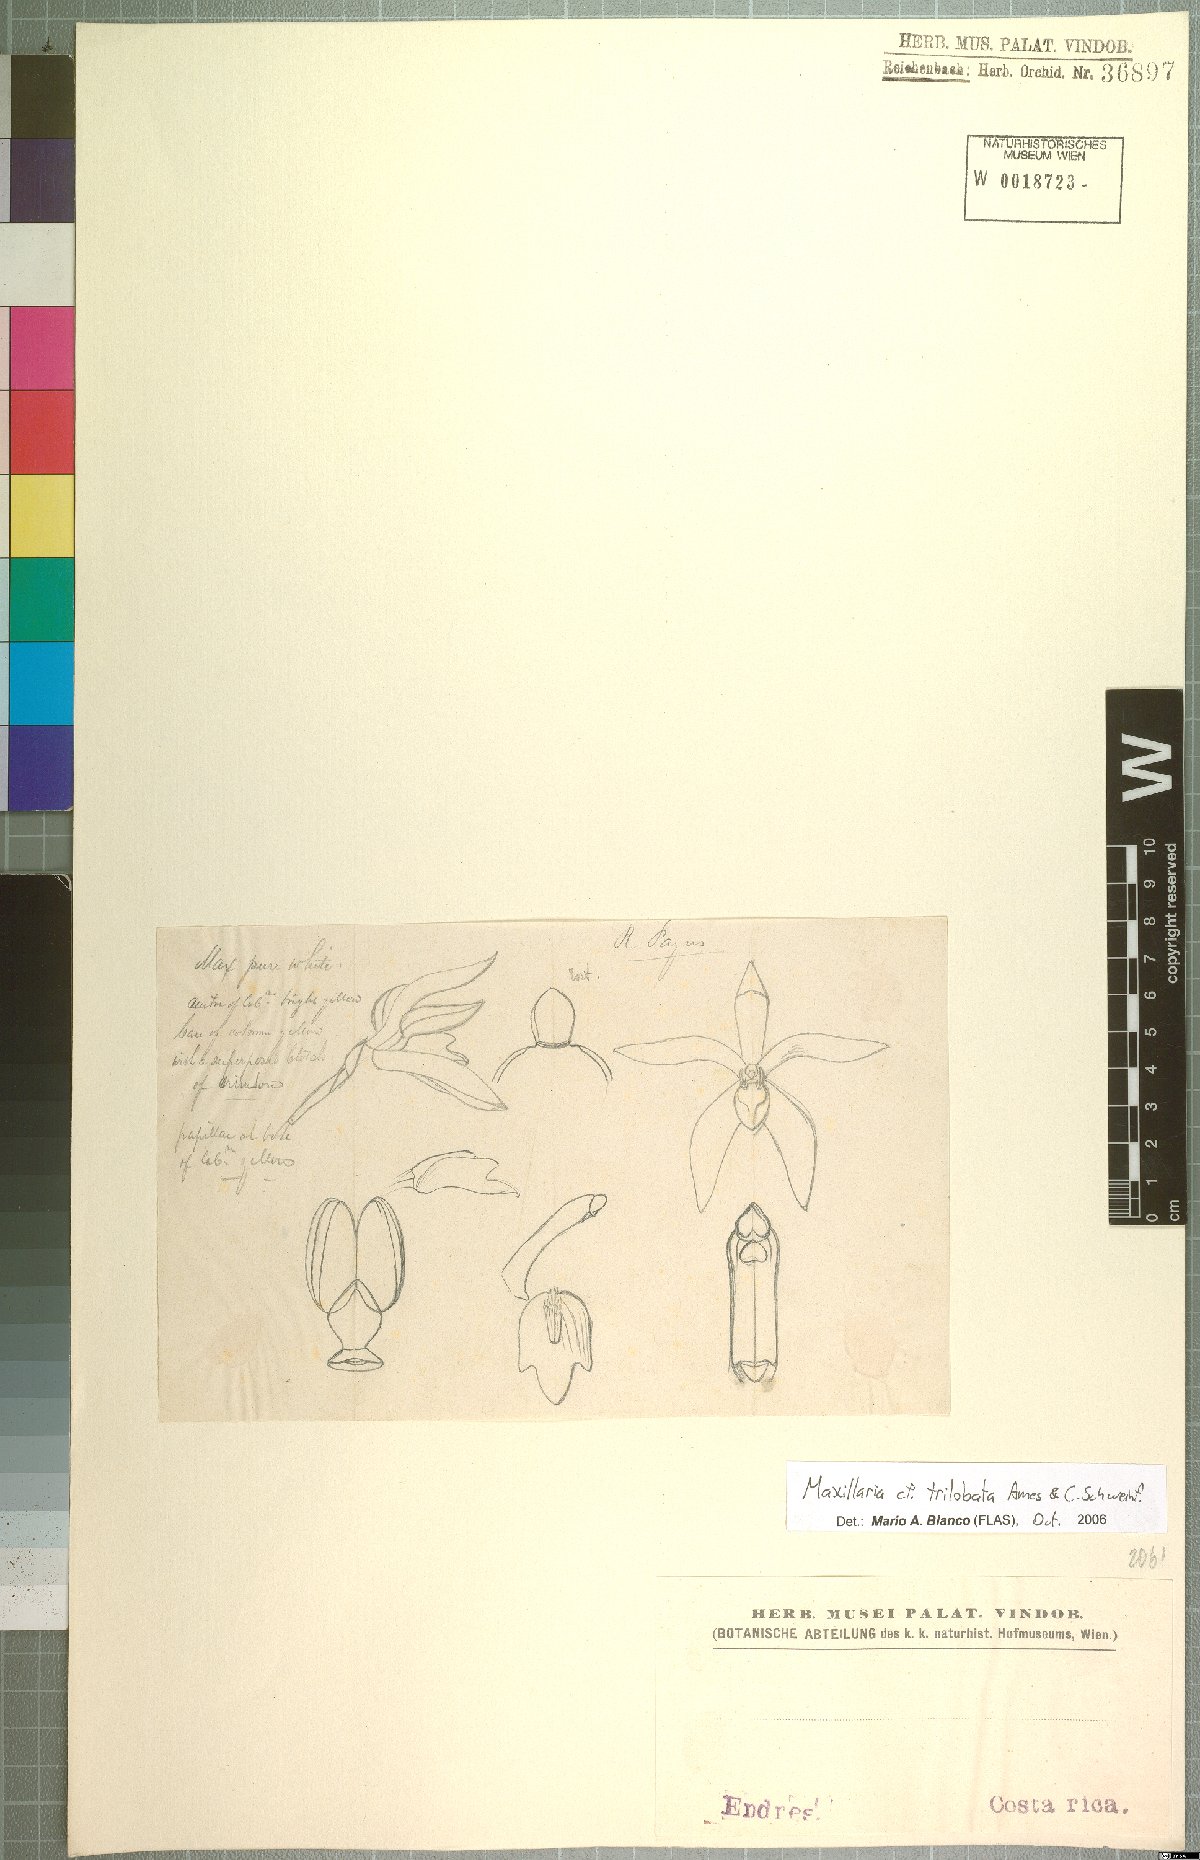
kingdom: Plantae
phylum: Tracheophyta
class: Liliopsida
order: Asparagales
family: Orchidaceae
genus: Maxillaria
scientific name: Maxillaria
